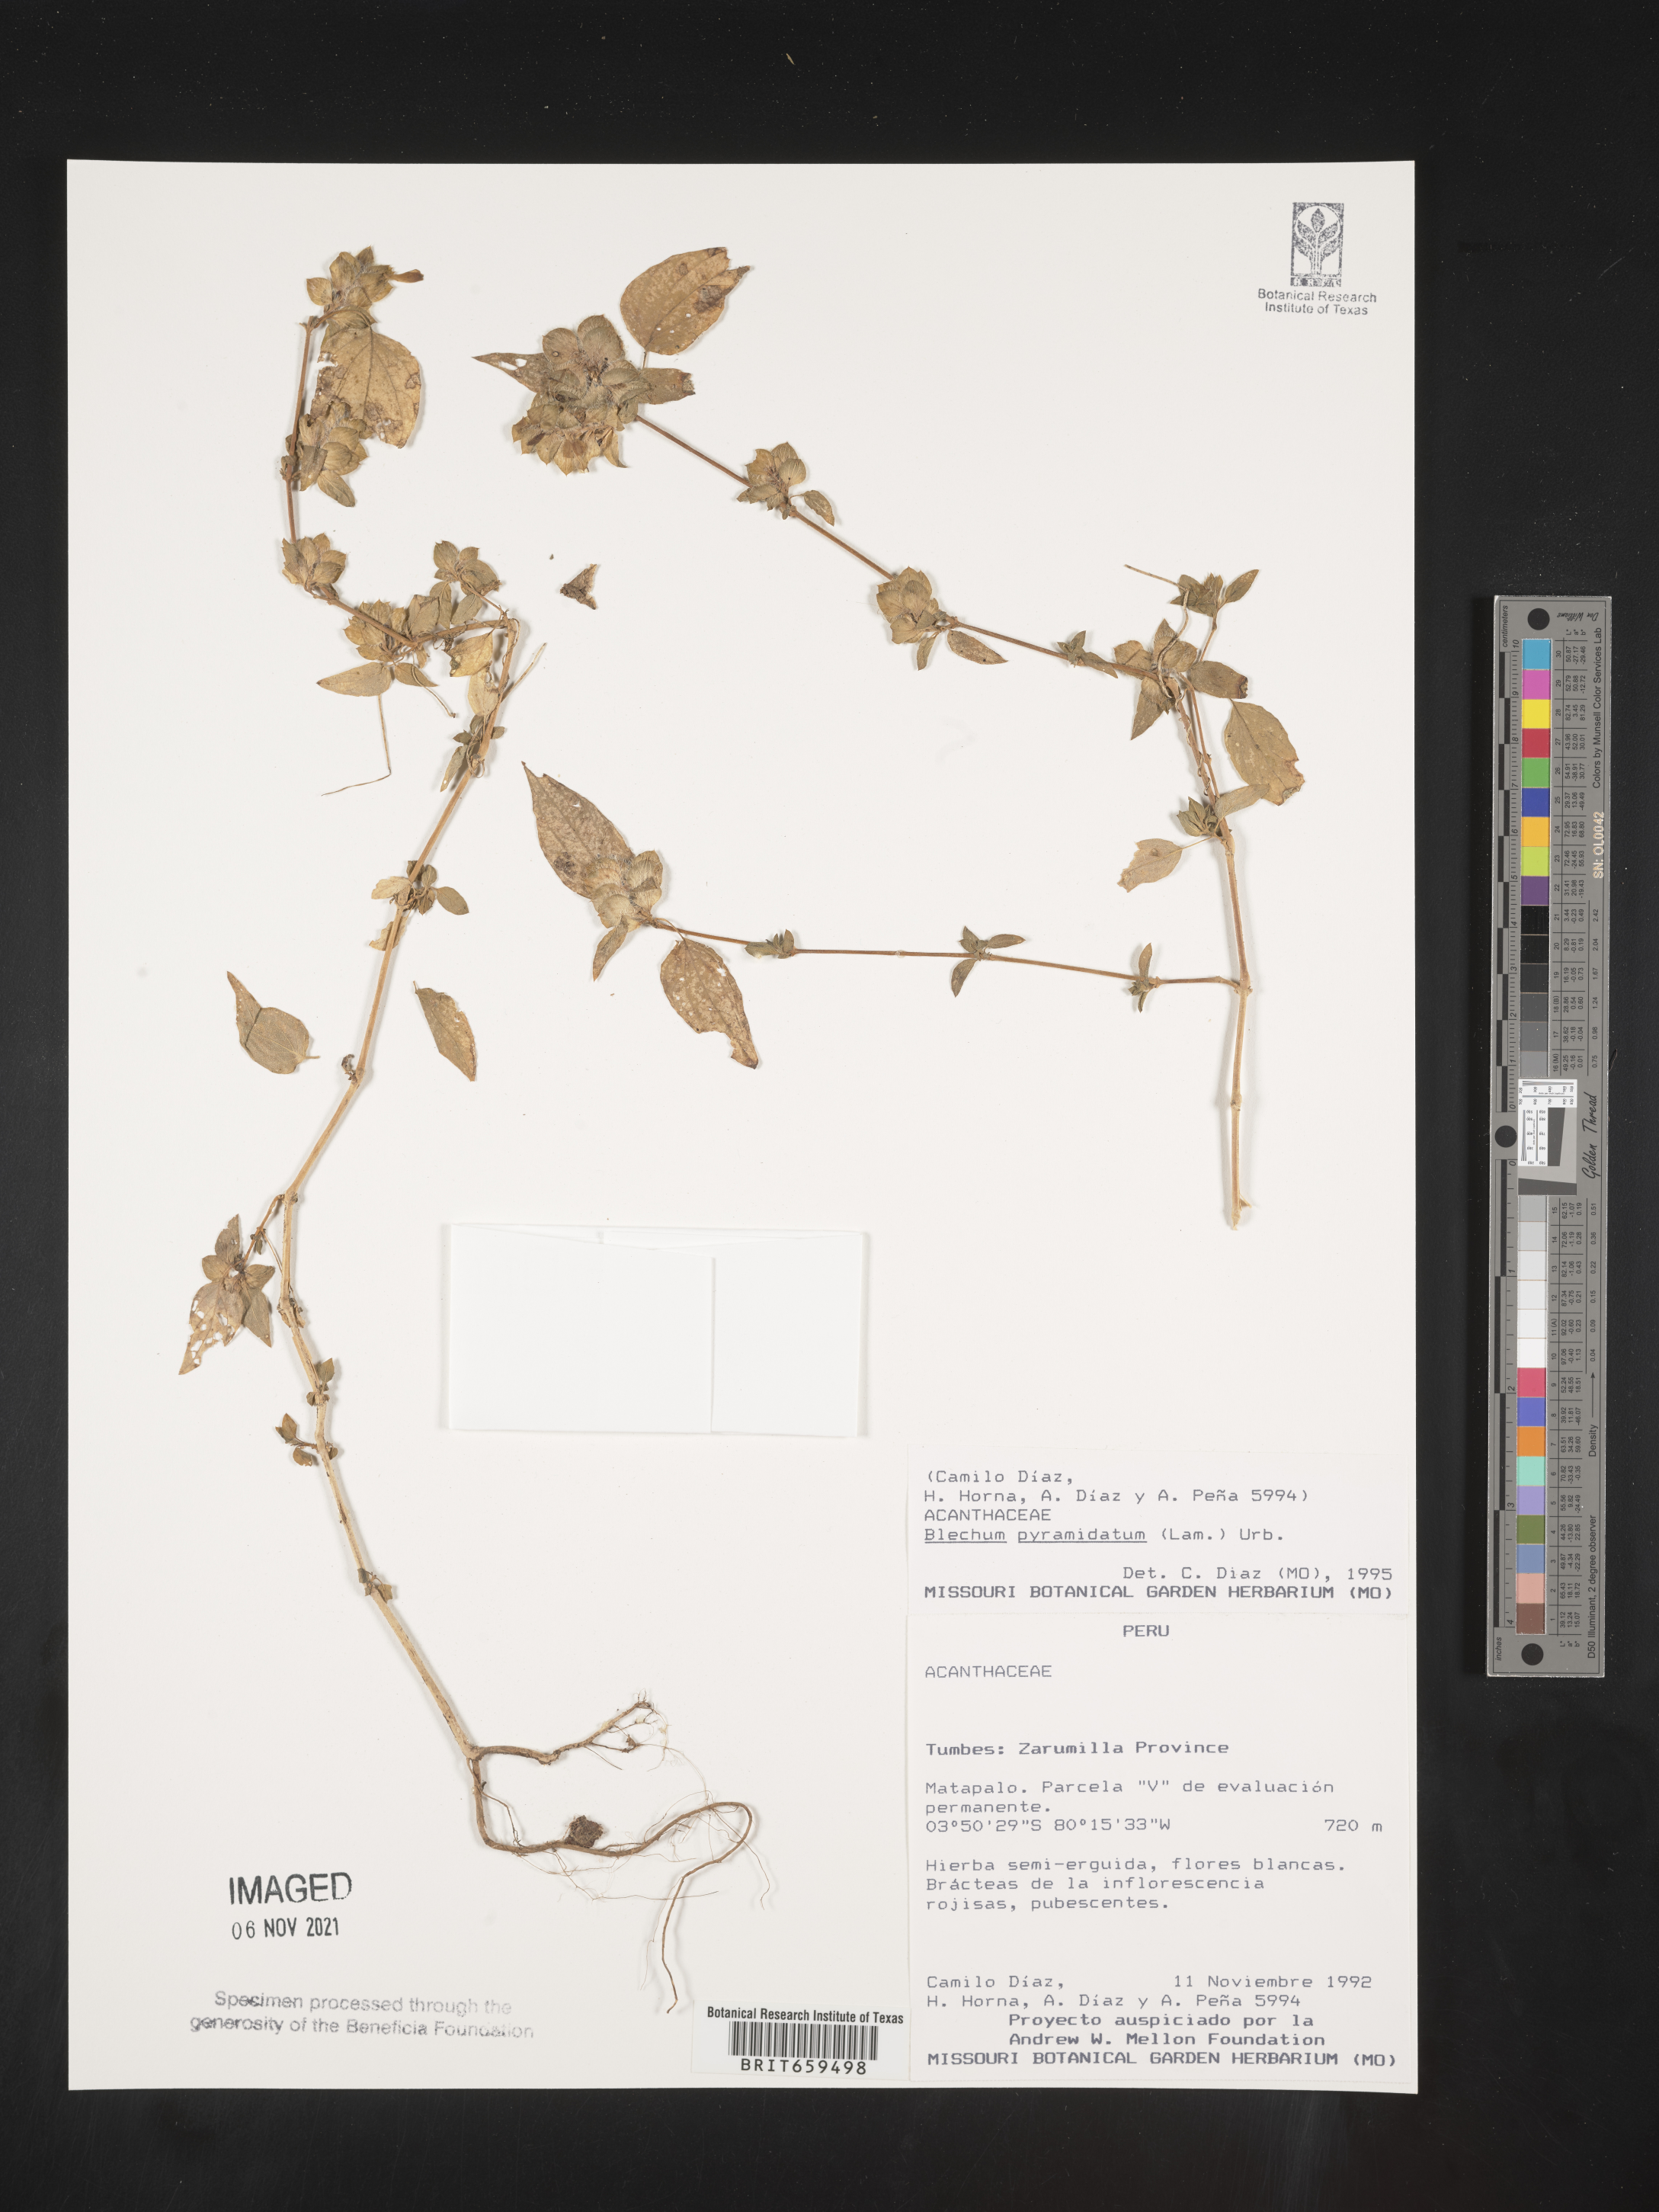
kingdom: Plantae
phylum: Tracheophyta
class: Polypodiopsida
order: Polypodiales
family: Blechnaceae
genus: Blechum
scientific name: Blechum
